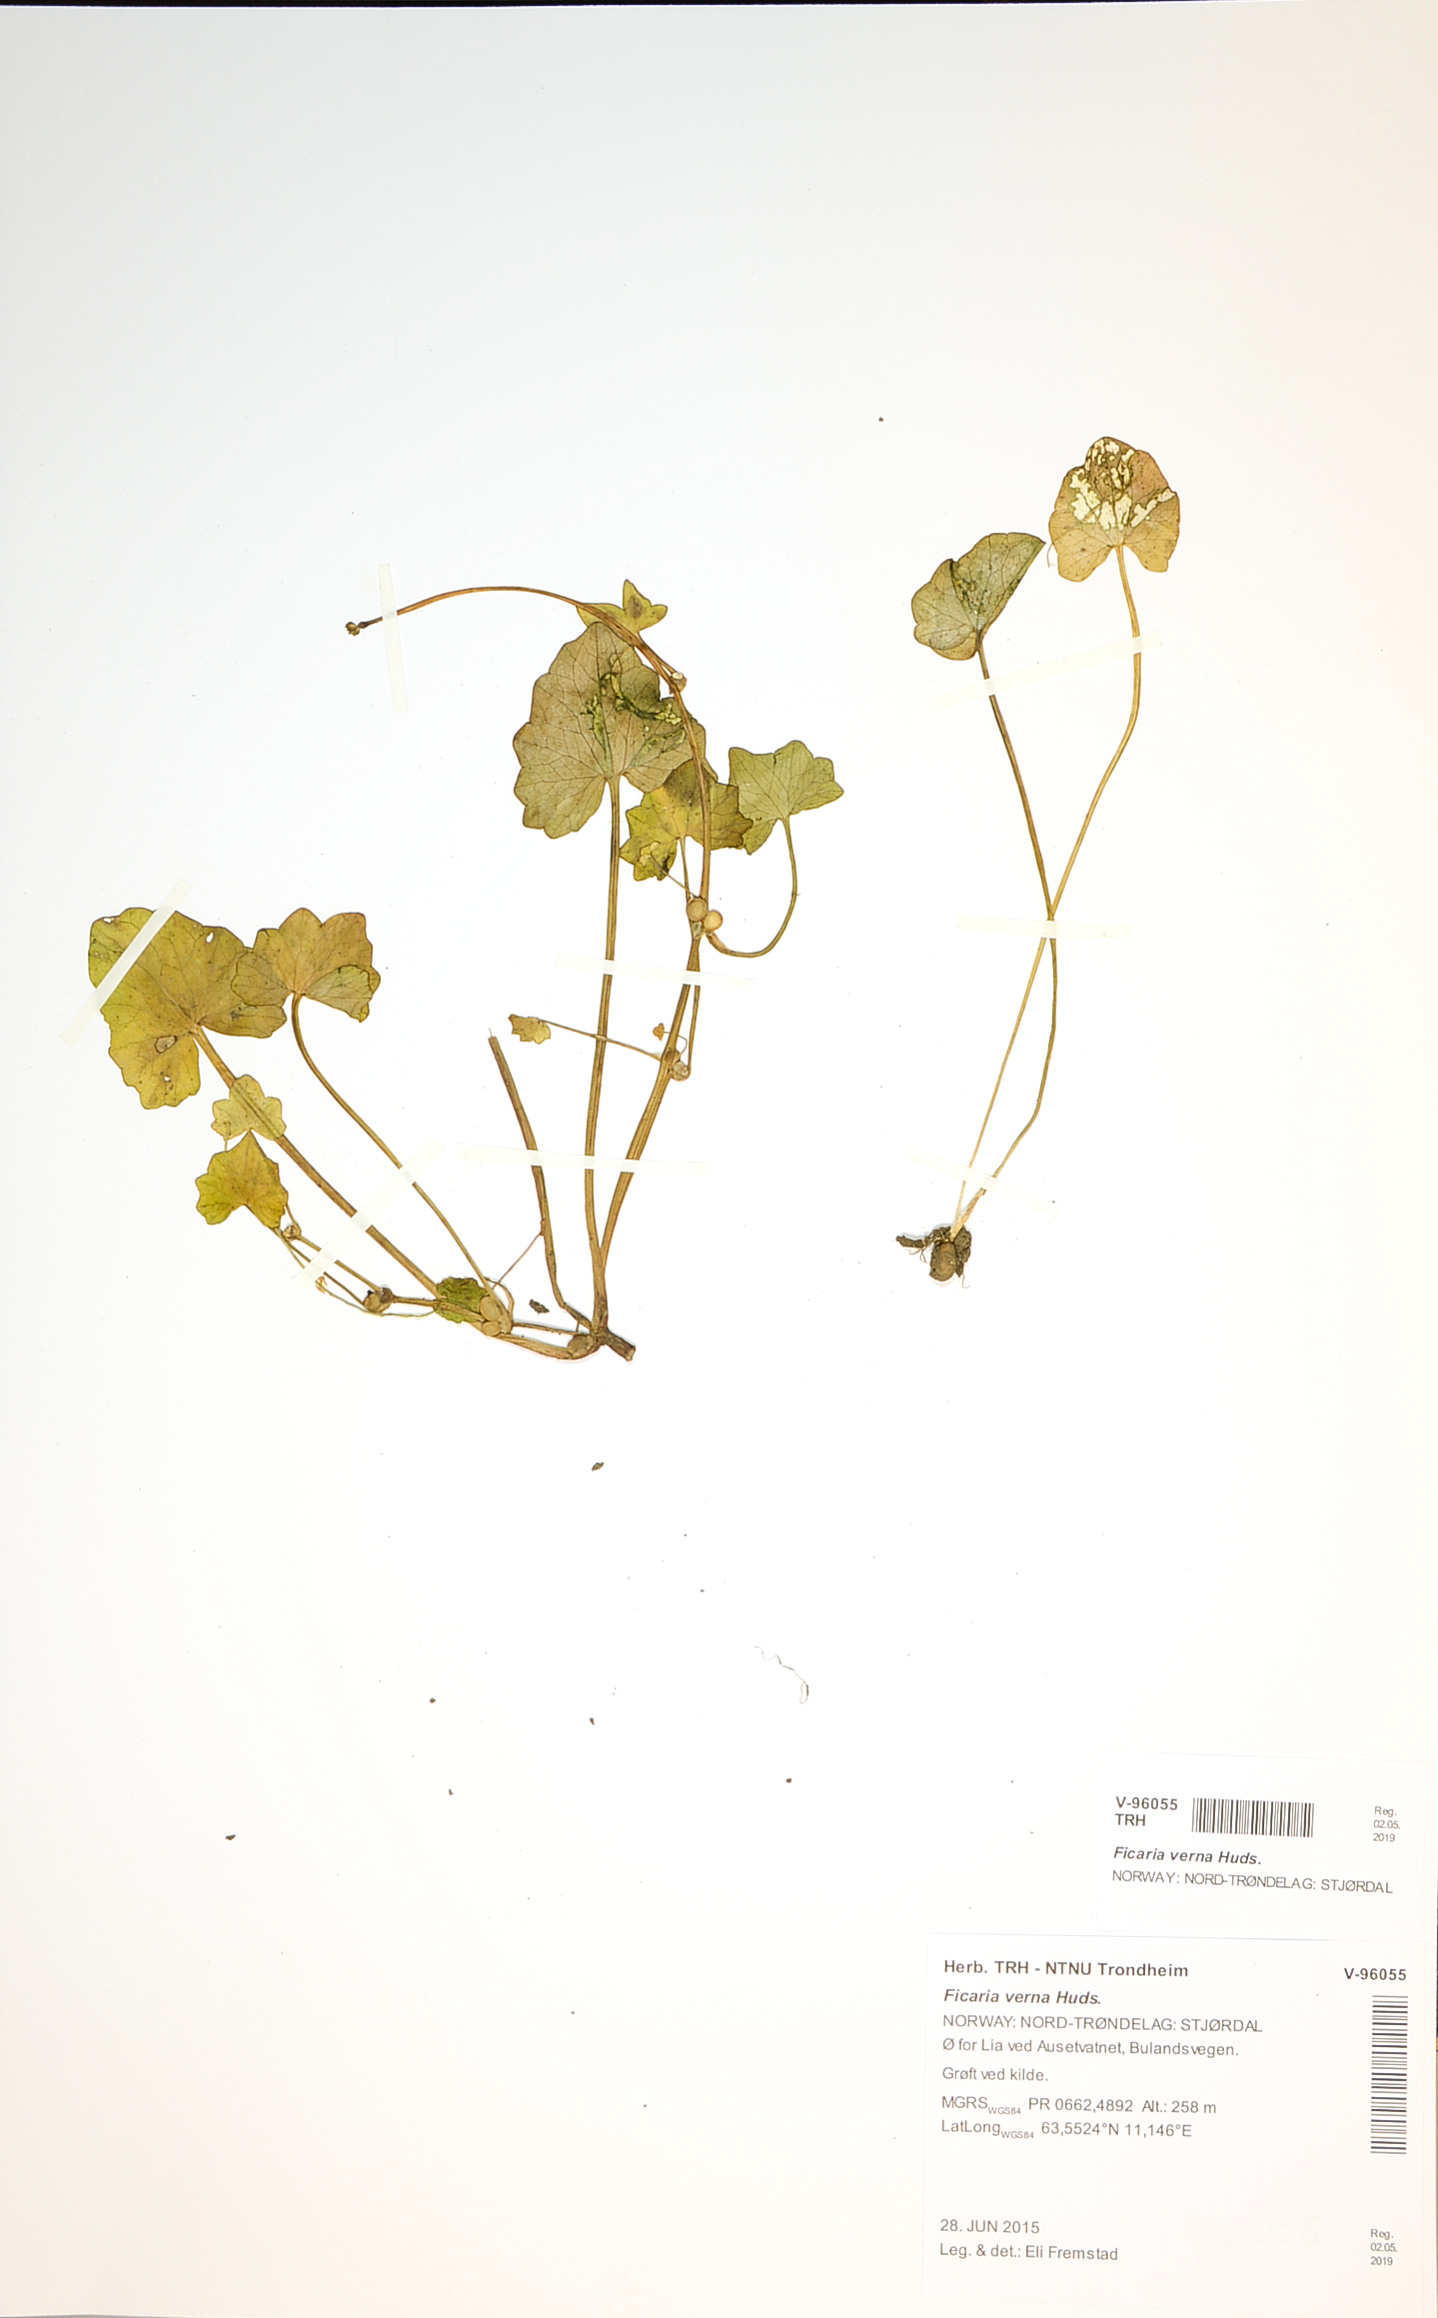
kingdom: Plantae
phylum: Tracheophyta
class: Magnoliopsida
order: Ranunculales
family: Ranunculaceae
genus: Ficaria
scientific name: Ficaria verna
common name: Lesser celandine
